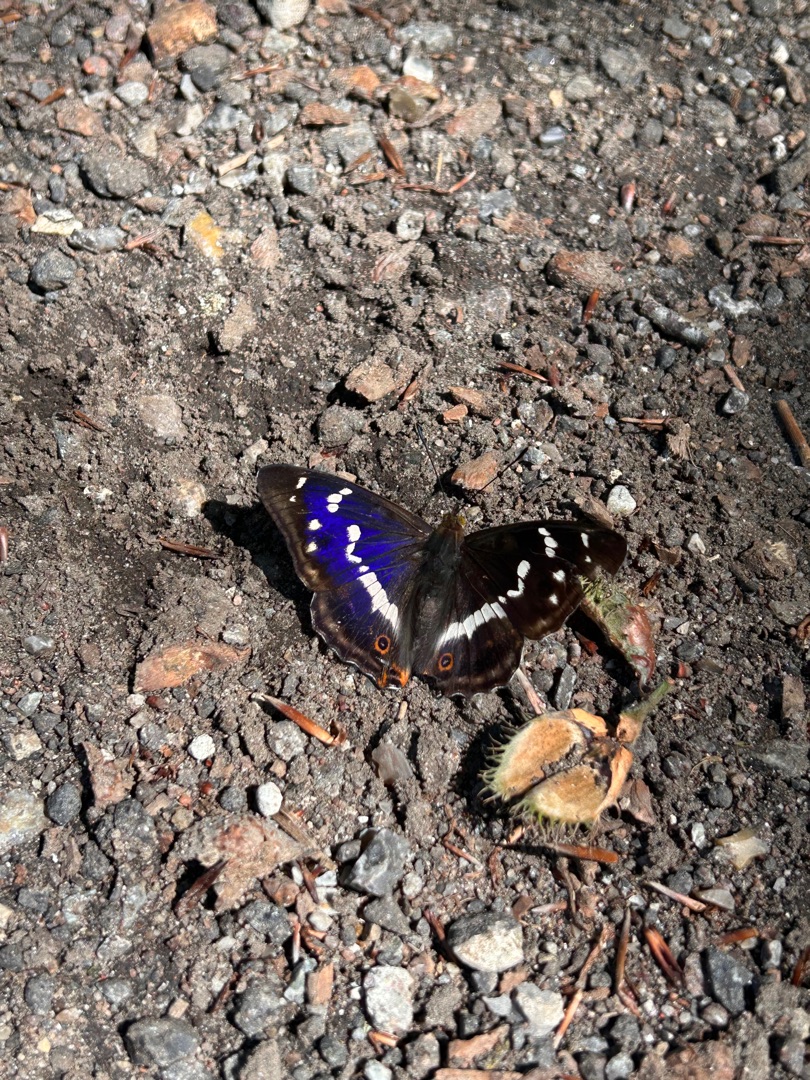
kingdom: Animalia
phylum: Arthropoda
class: Insecta
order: Lepidoptera
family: Nymphalidae
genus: Apatura
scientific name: Apatura iris
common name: Iris
